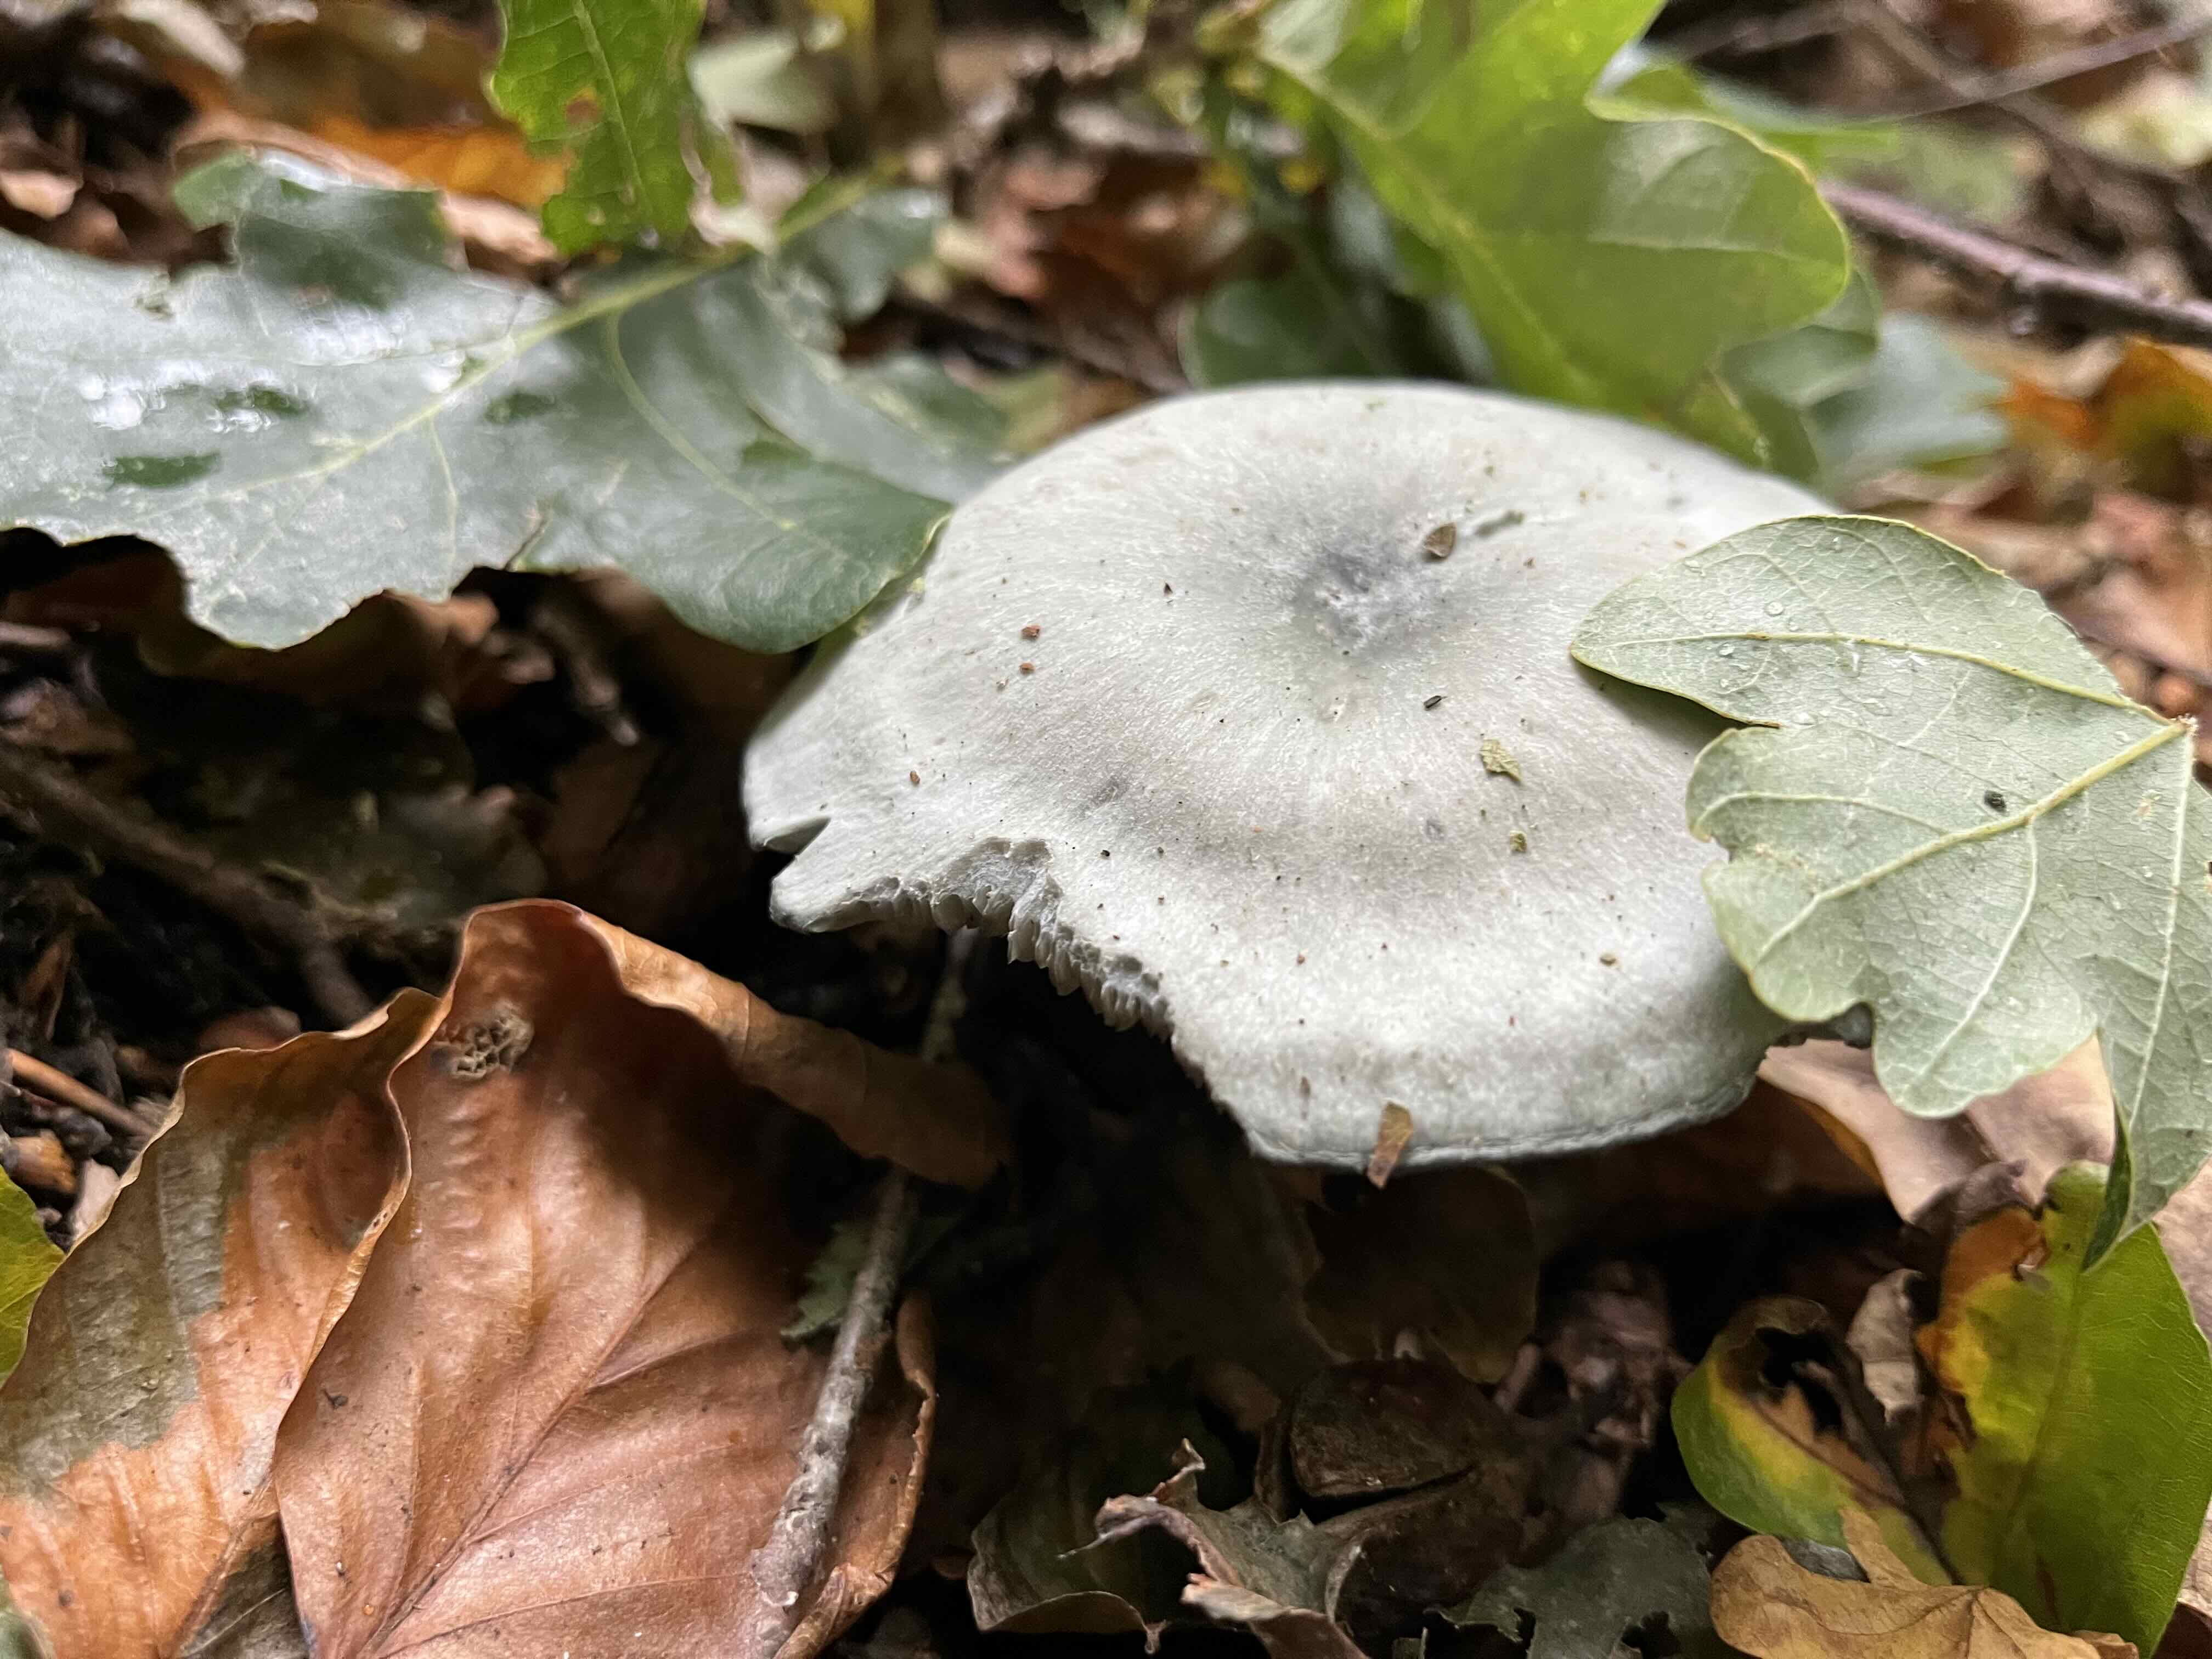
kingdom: Fungi
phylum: Basidiomycota
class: Agaricomycetes
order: Agaricales
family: Tricholomataceae
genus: Clitocybe
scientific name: Clitocybe odora
